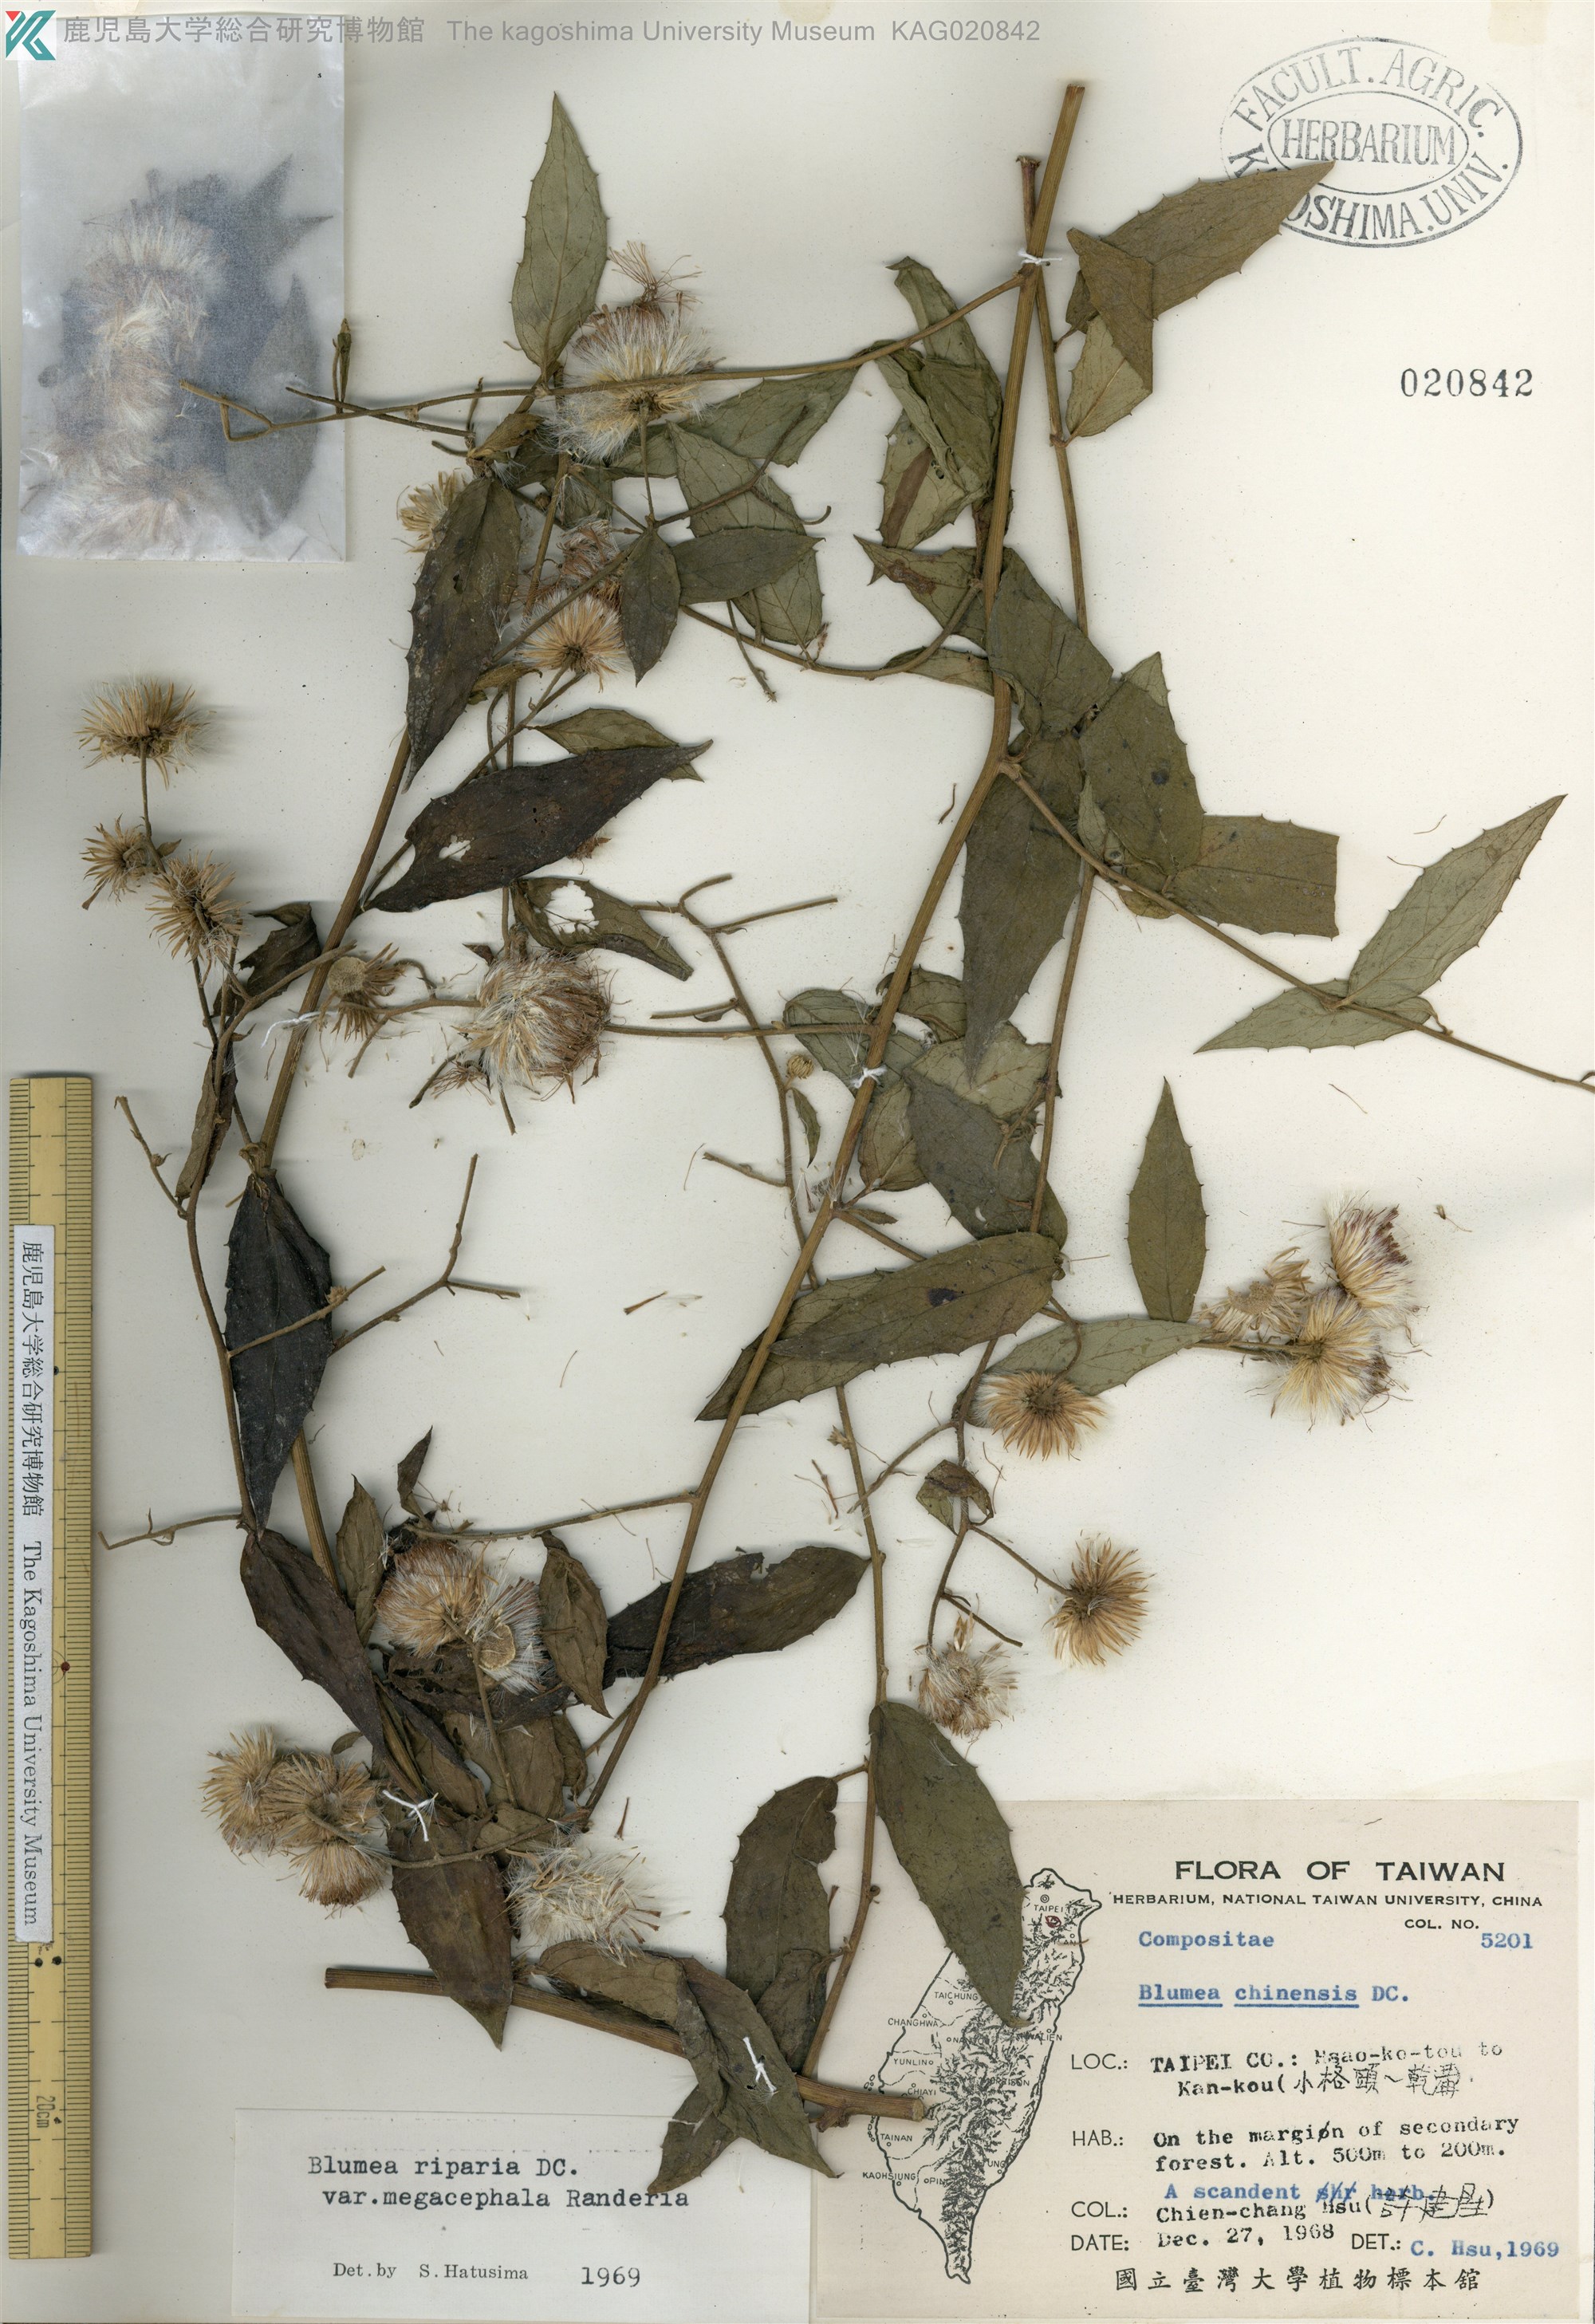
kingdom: Plantae
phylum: Tracheophyta
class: Magnoliopsida
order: Asterales
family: Asteraceae
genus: Blumea
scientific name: Blumea megacephala
